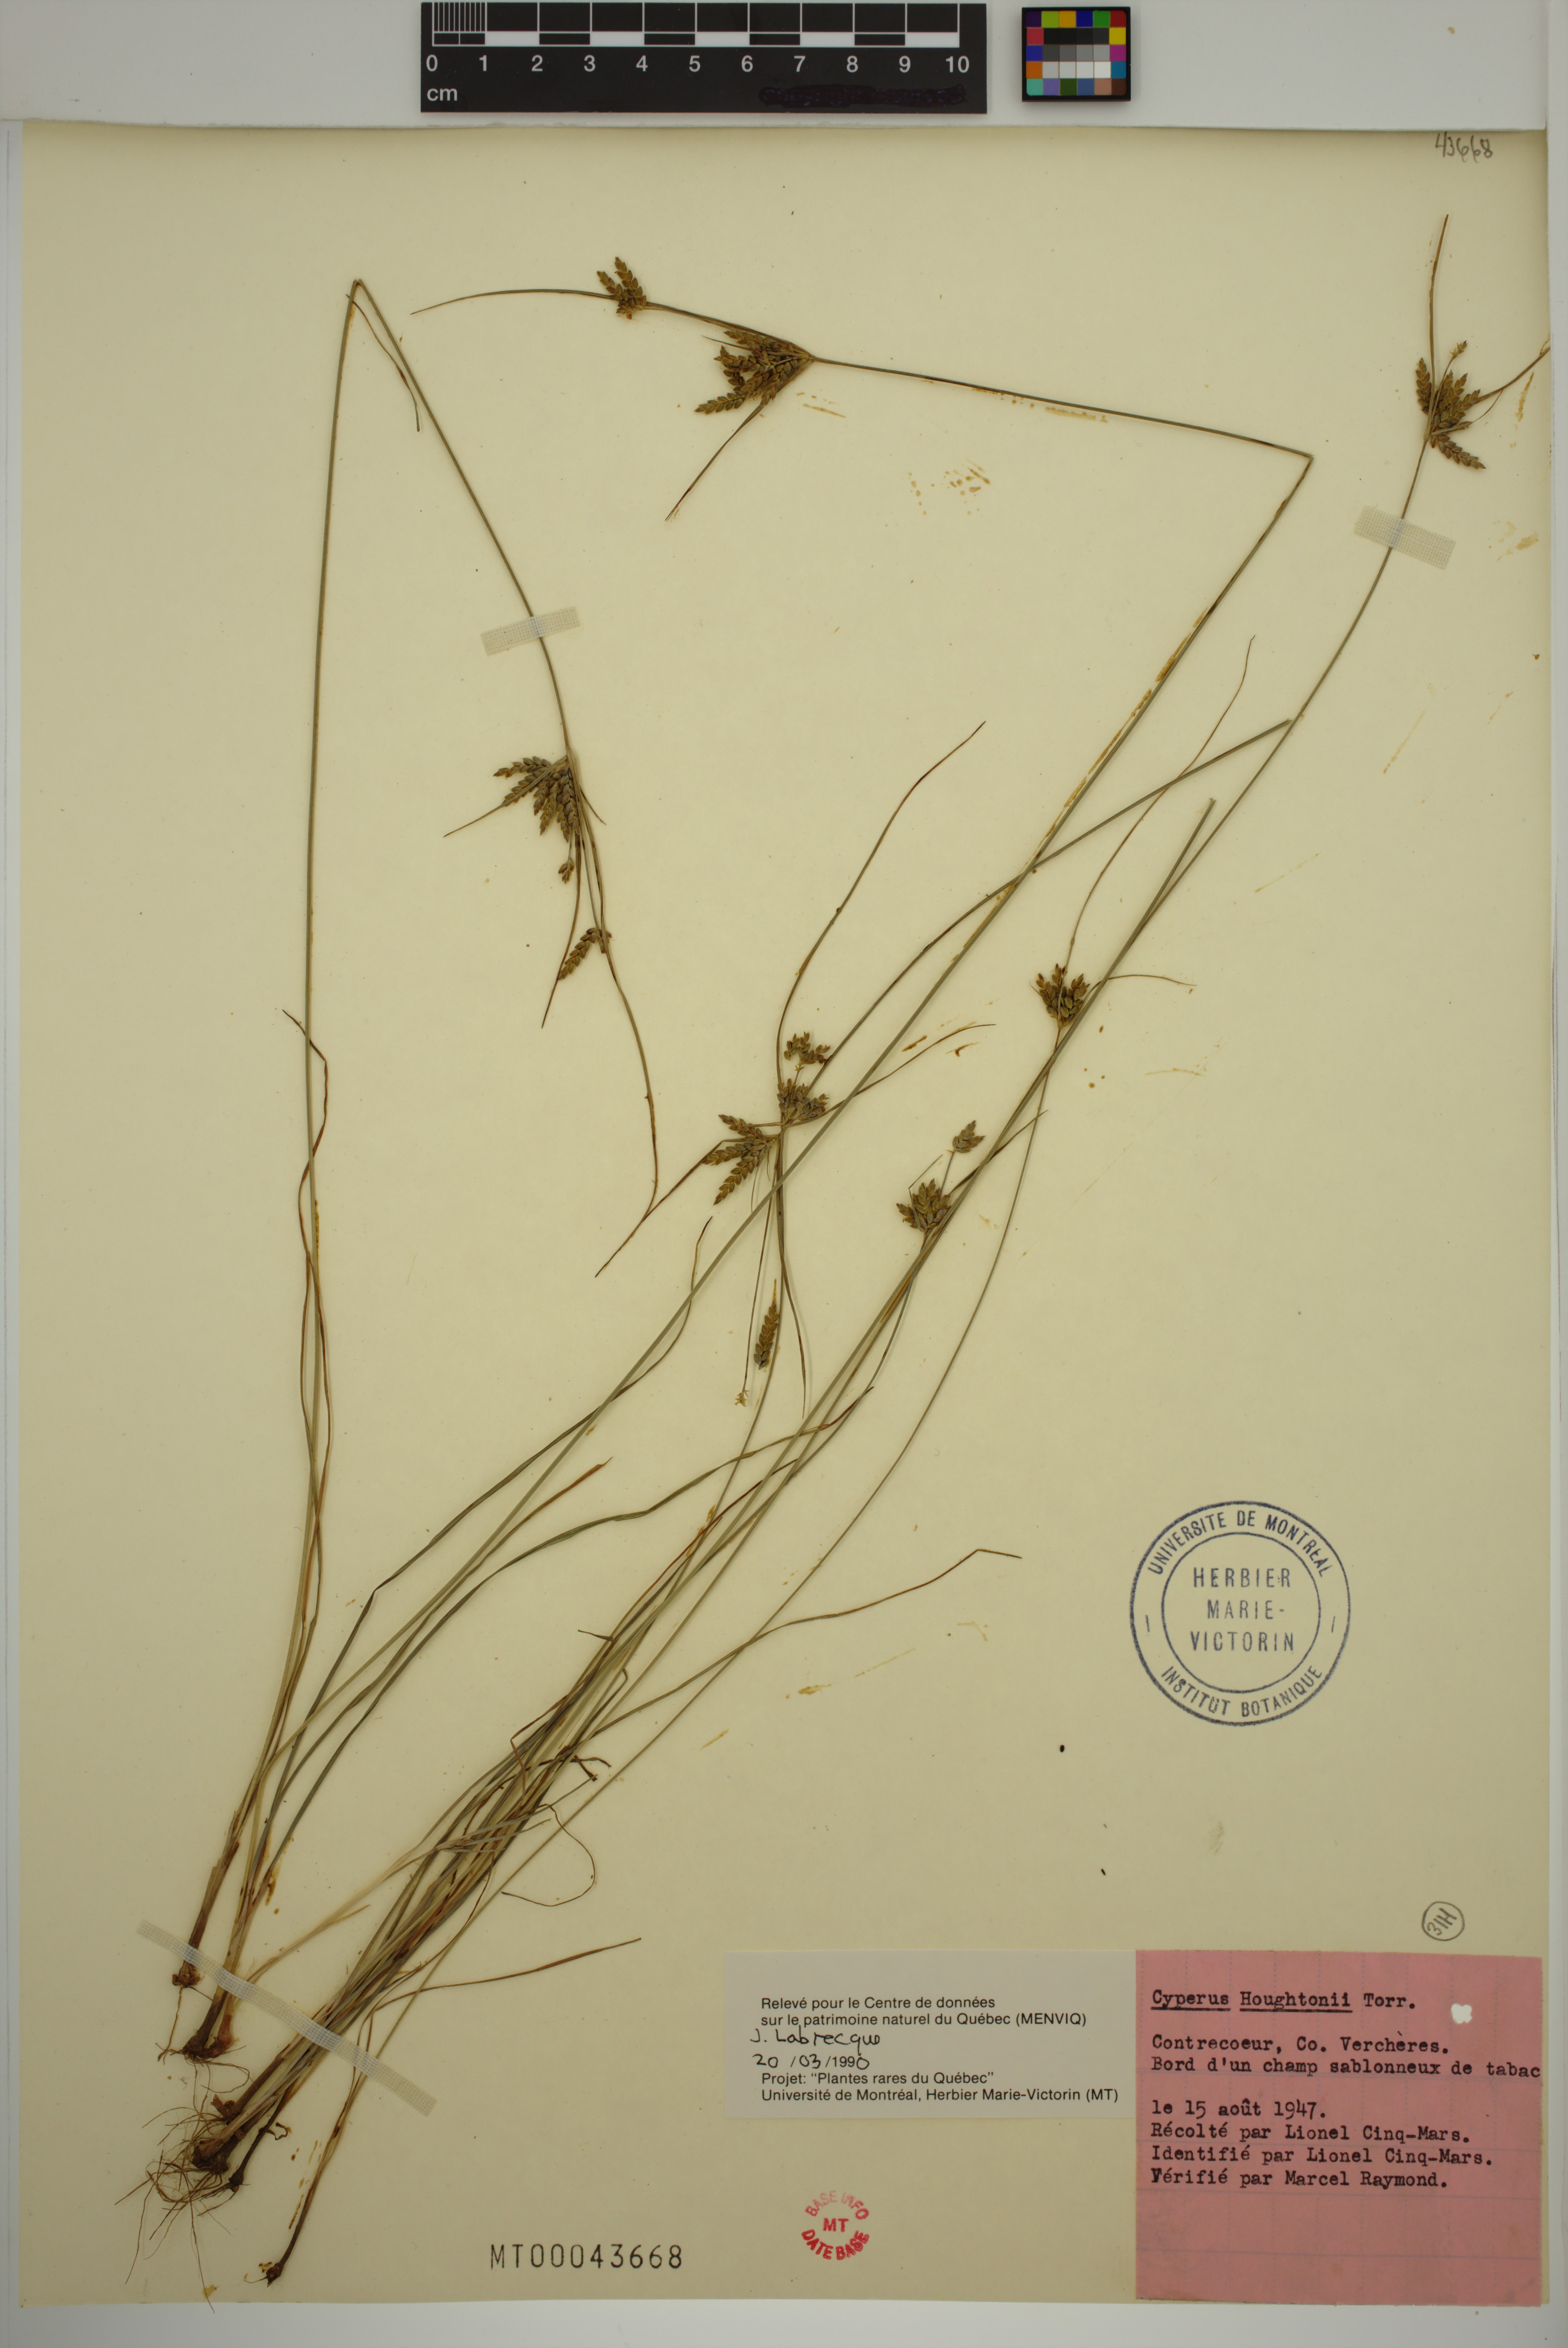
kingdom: Plantae
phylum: Tracheophyta
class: Liliopsida
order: Poales
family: Cyperaceae
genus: Cyperus
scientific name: Cyperus houghtonii
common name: Houghton's cyperus
